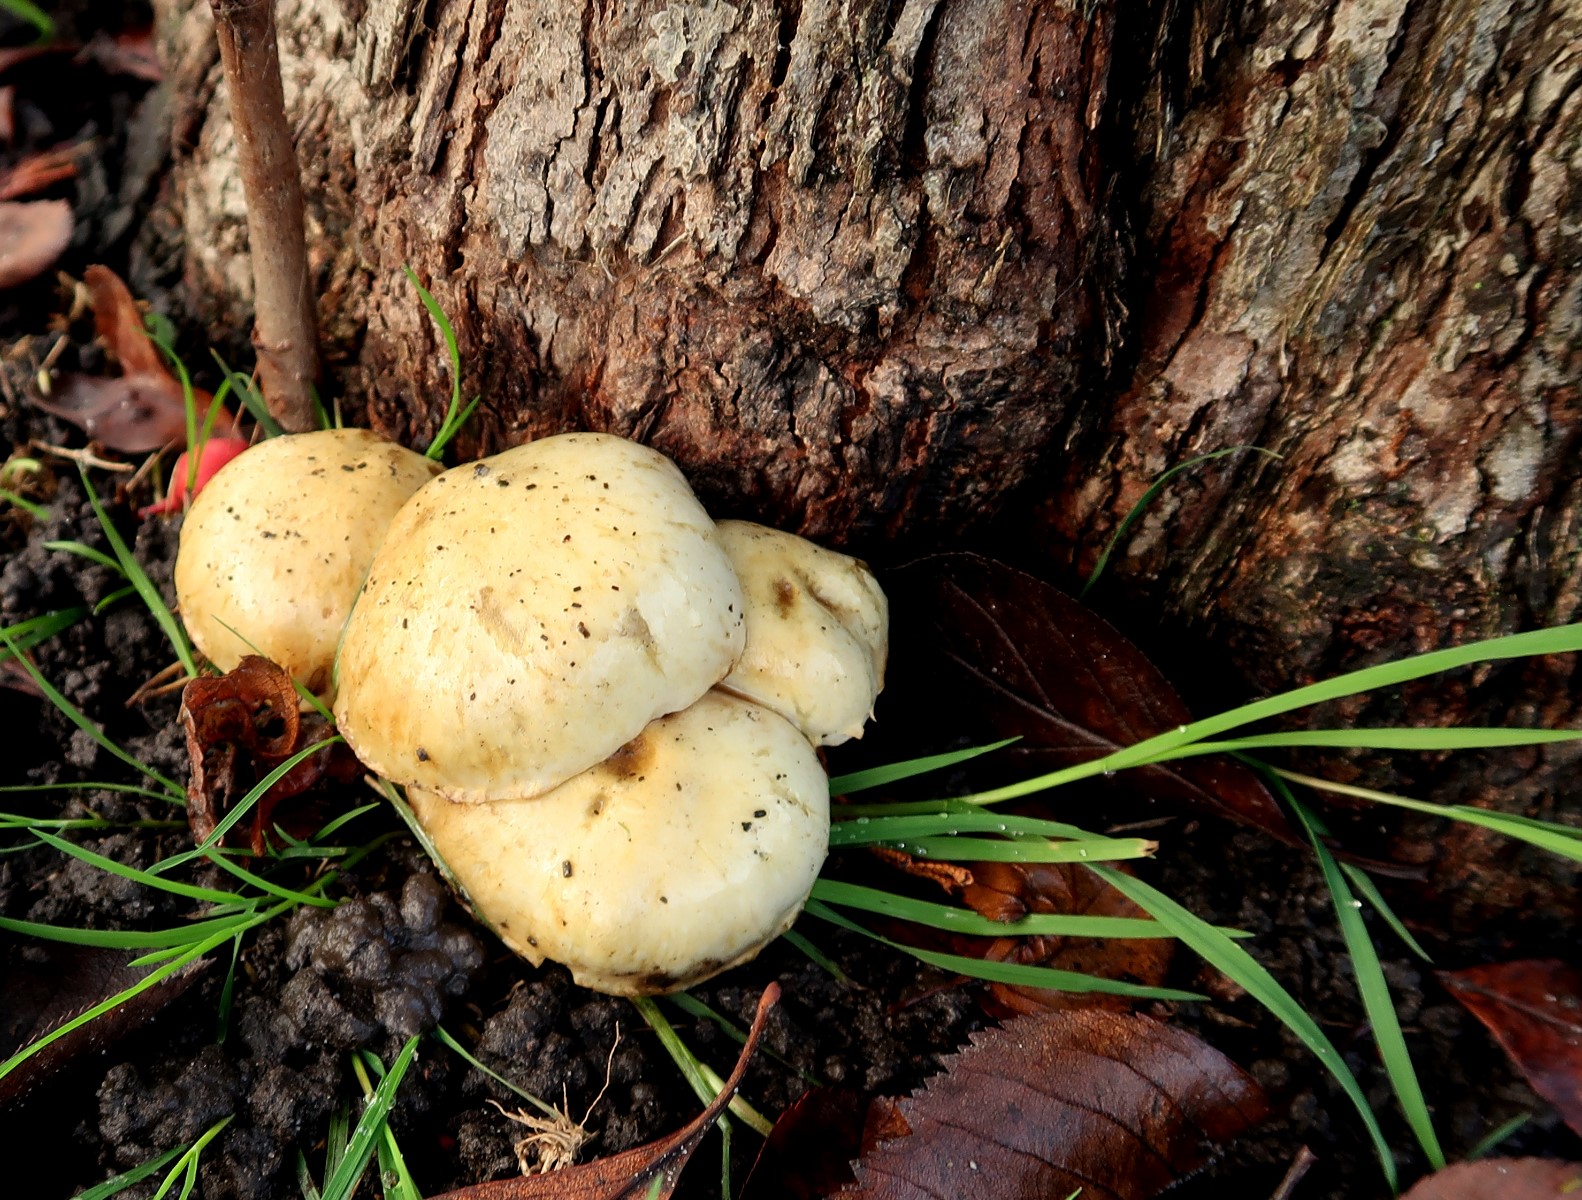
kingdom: Fungi
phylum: Basidiomycota
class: Agaricomycetes
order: Agaricales
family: Strophariaceae
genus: Pholiota
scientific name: Pholiota gummosa
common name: grøngul skælhat
